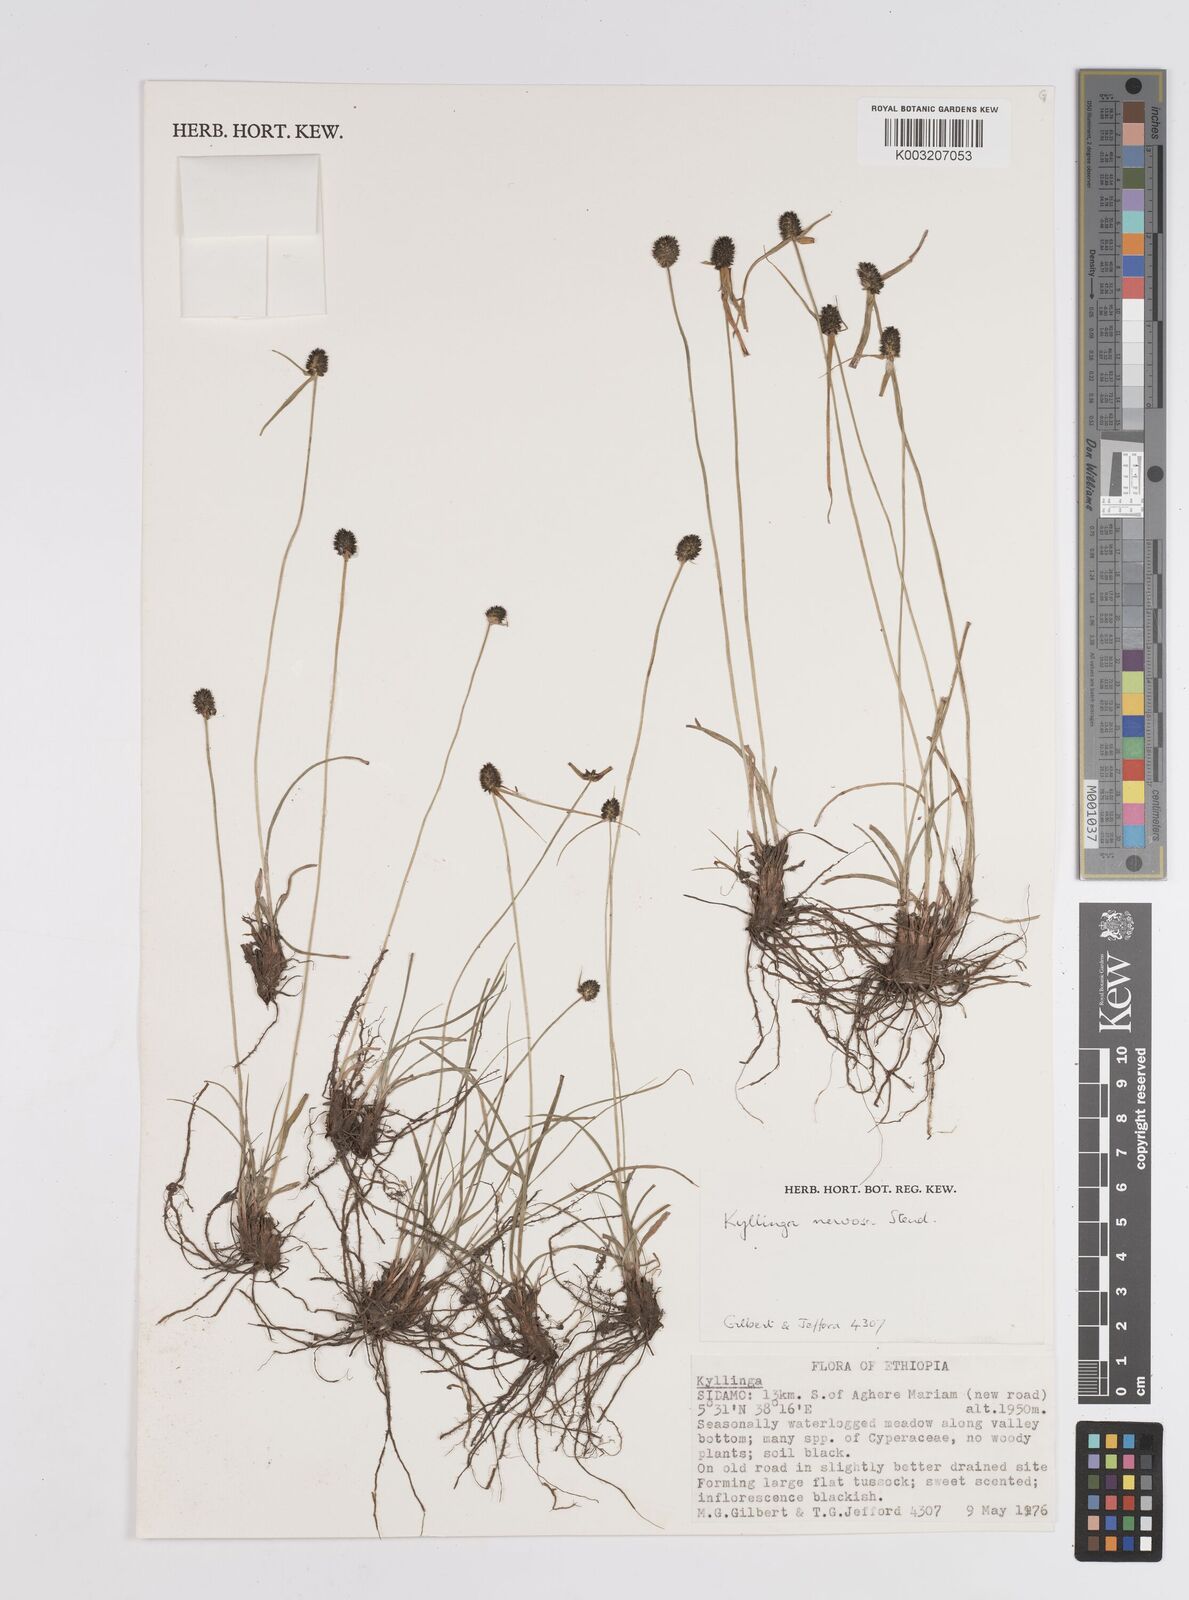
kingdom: Plantae
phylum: Tracheophyta
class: Liliopsida
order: Poales
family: Cyperaceae
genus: Cyperus
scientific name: Cyperus costatus
